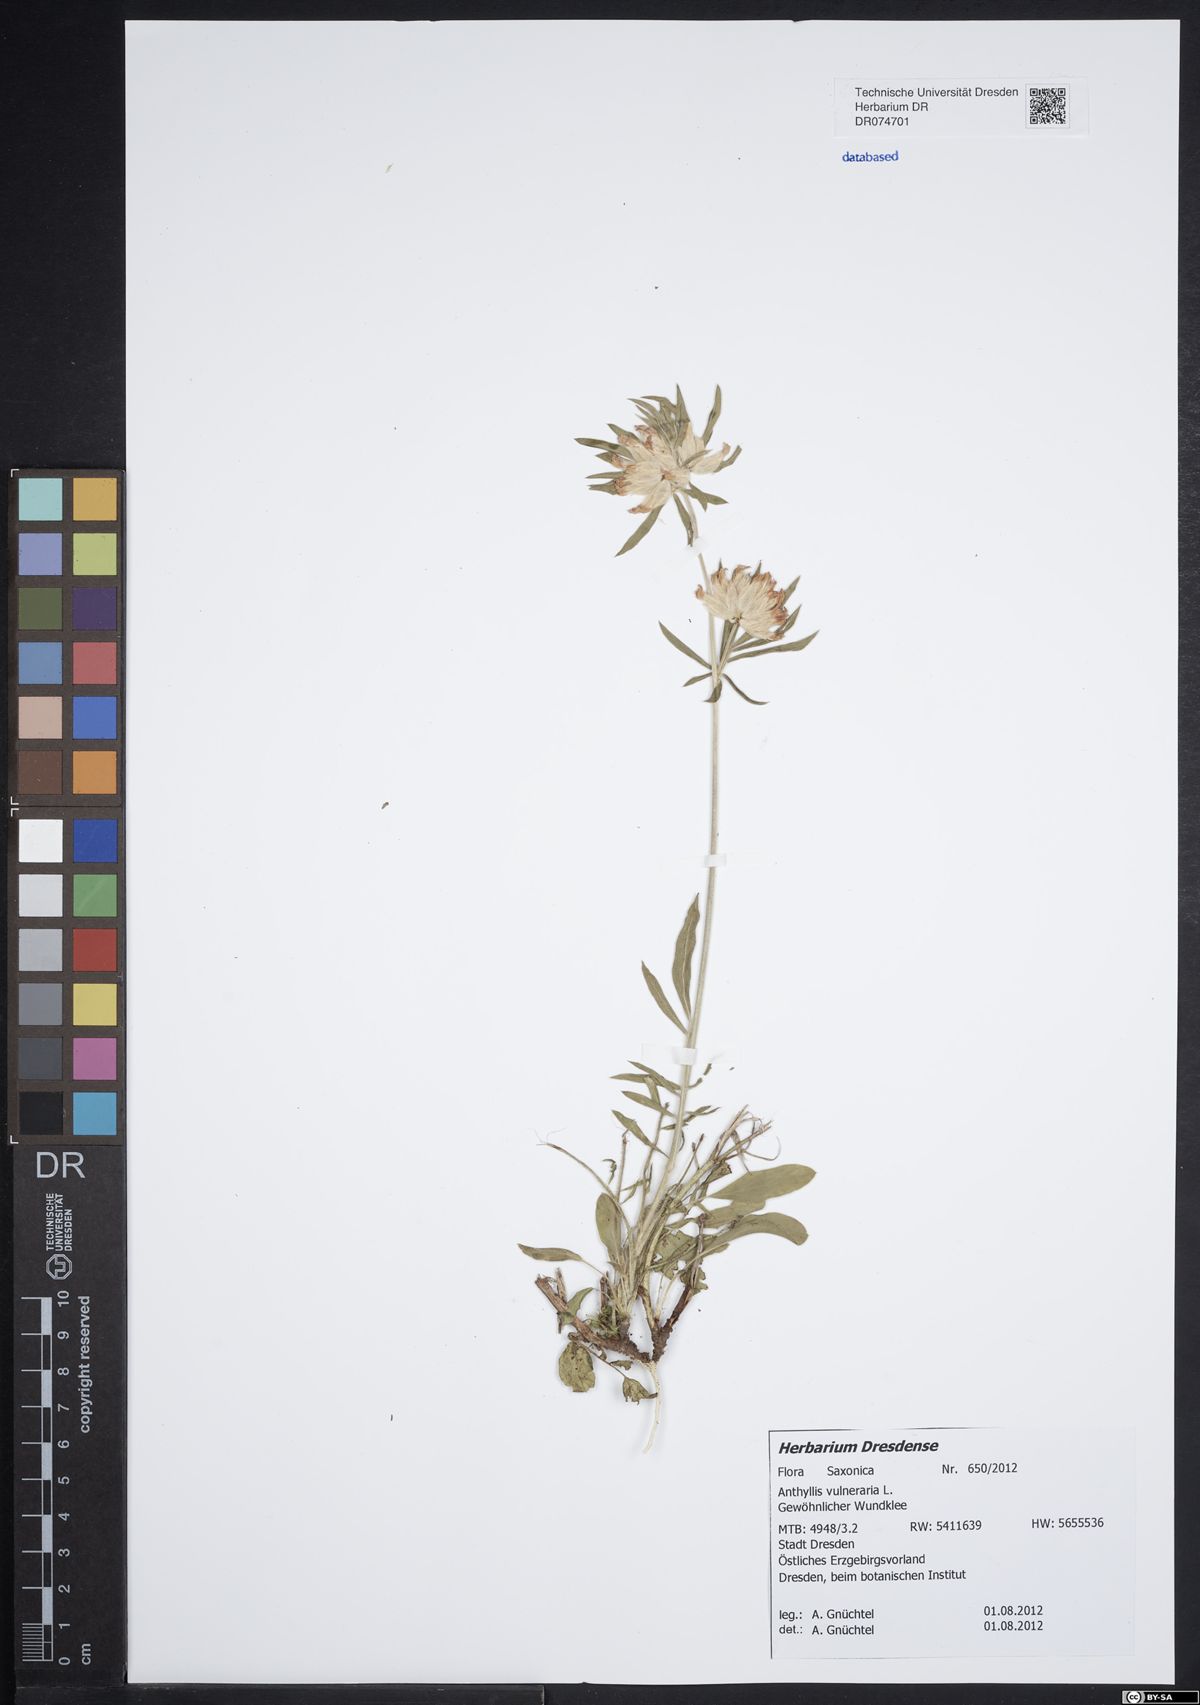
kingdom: Plantae
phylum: Tracheophyta
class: Magnoliopsida
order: Fabales
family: Fabaceae
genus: Anthyllis
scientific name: Anthyllis vulneraria
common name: Kidney vetch
